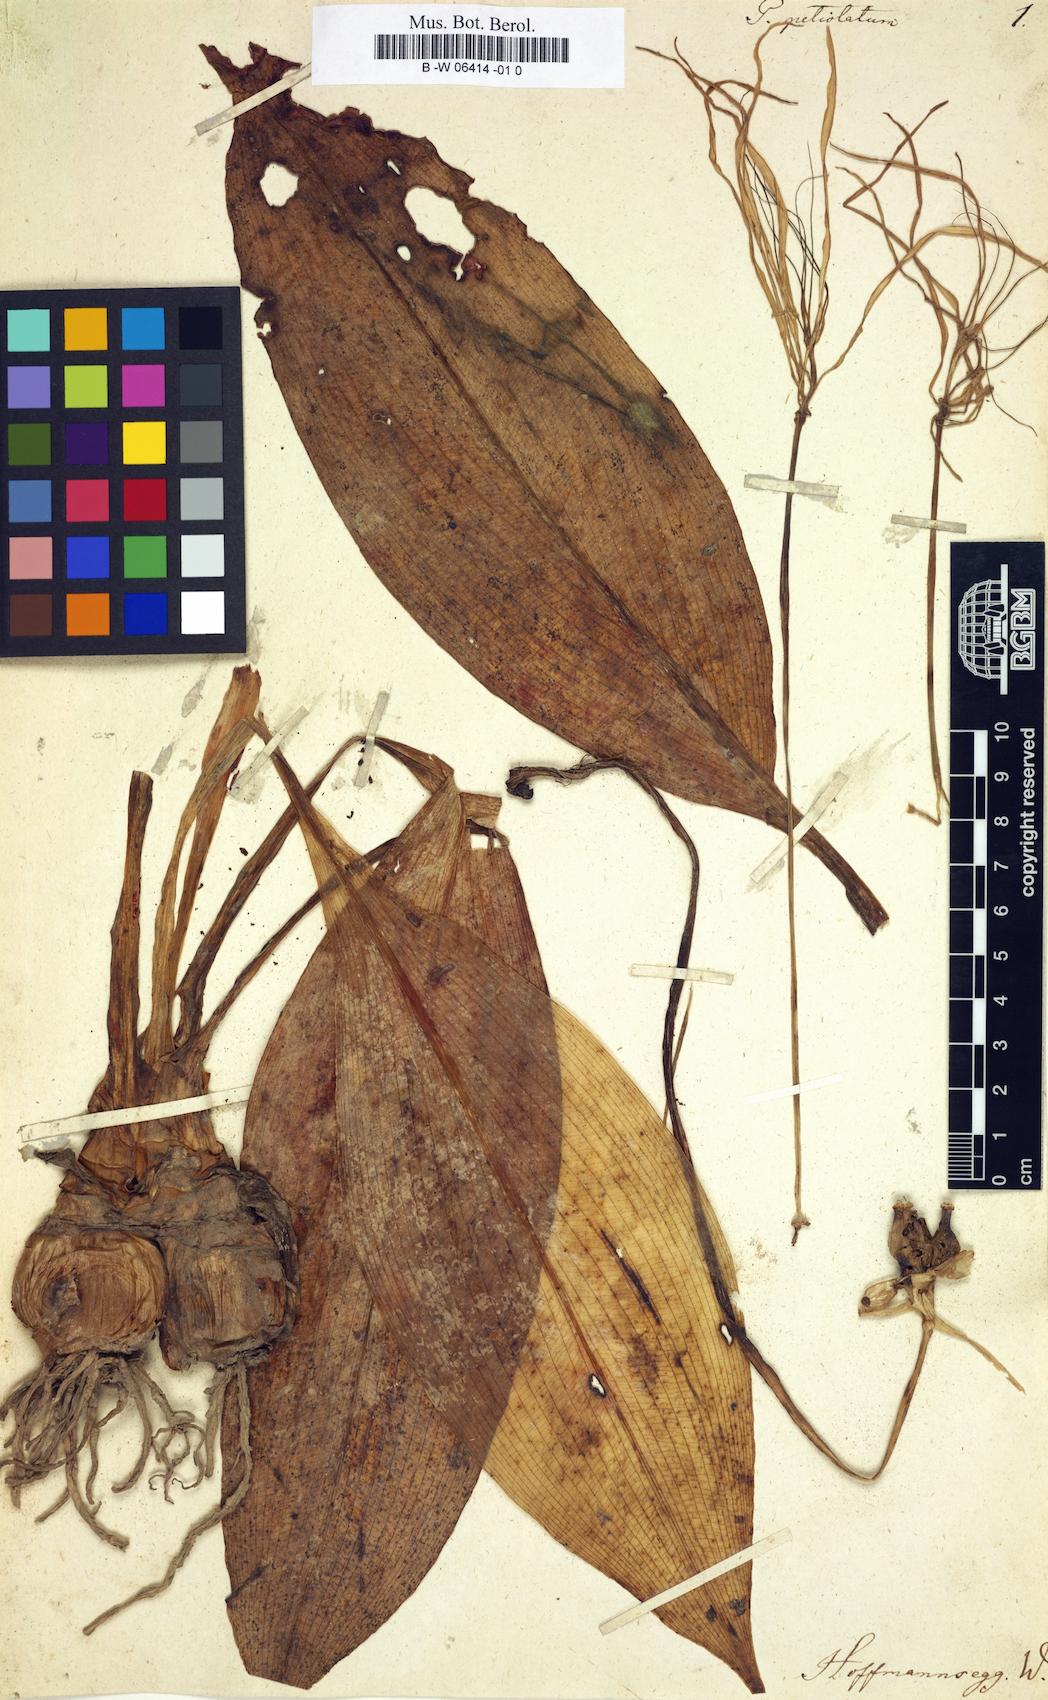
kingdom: Plantae
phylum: Tracheophyta
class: Liliopsida
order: Asparagales
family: Amaryllidaceae
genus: Hymenocallis
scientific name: Hymenocallis tubiflora
